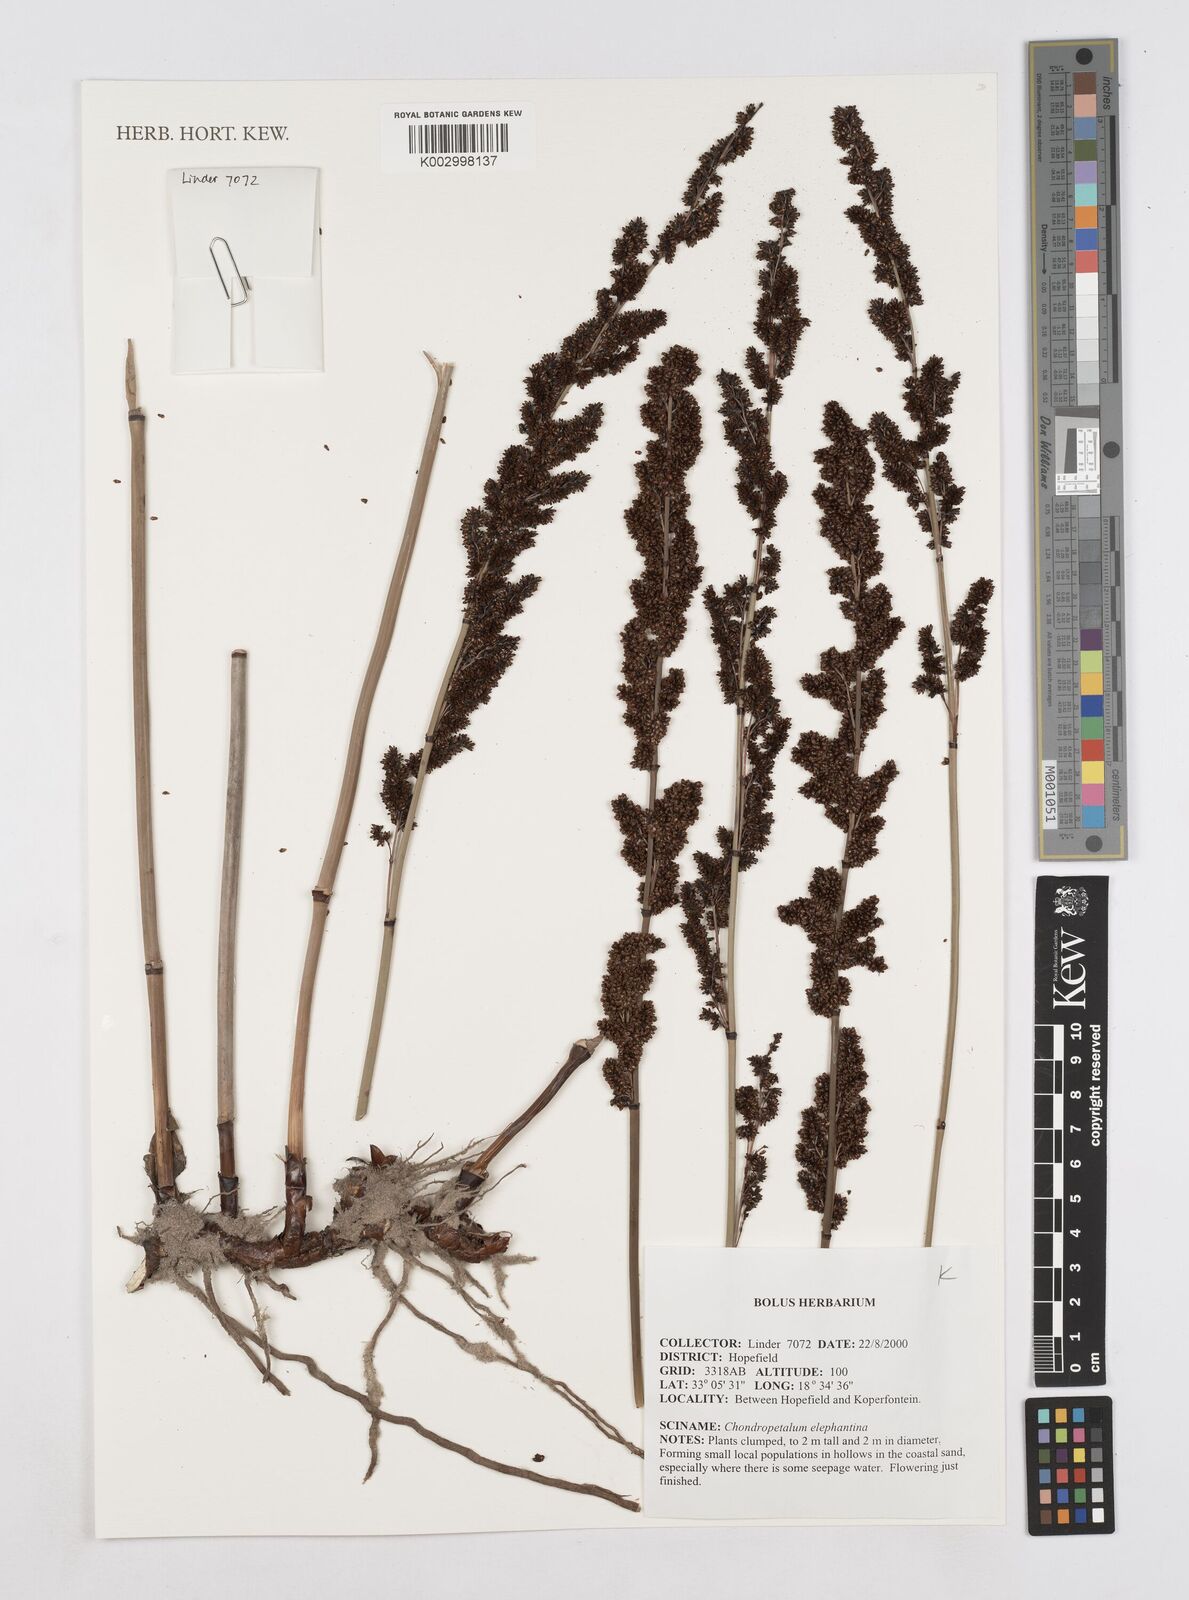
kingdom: Plantae
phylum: Tracheophyta
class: Liliopsida
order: Poales
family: Restionaceae
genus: Elegia
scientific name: Elegia elephantina
